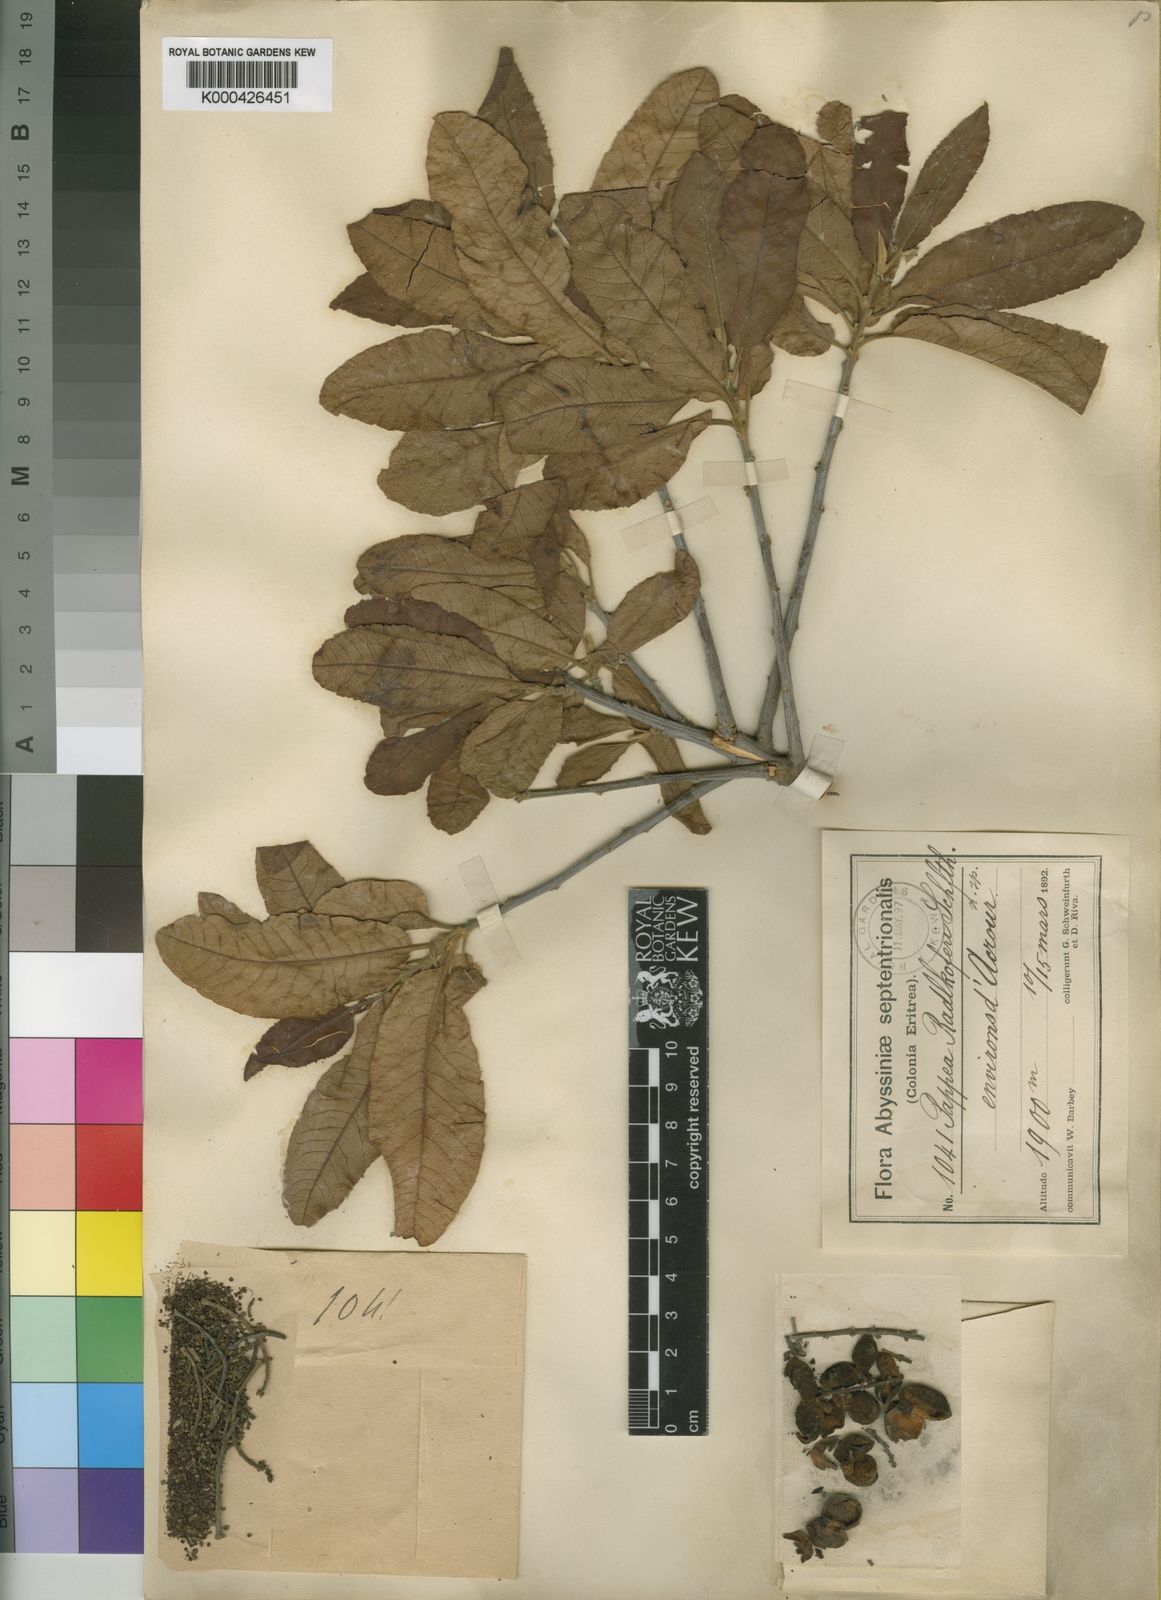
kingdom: Plantae
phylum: Tracheophyta
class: Magnoliopsida
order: Sapindales
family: Sapindaceae
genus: Pappea
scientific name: Pappea capensis
